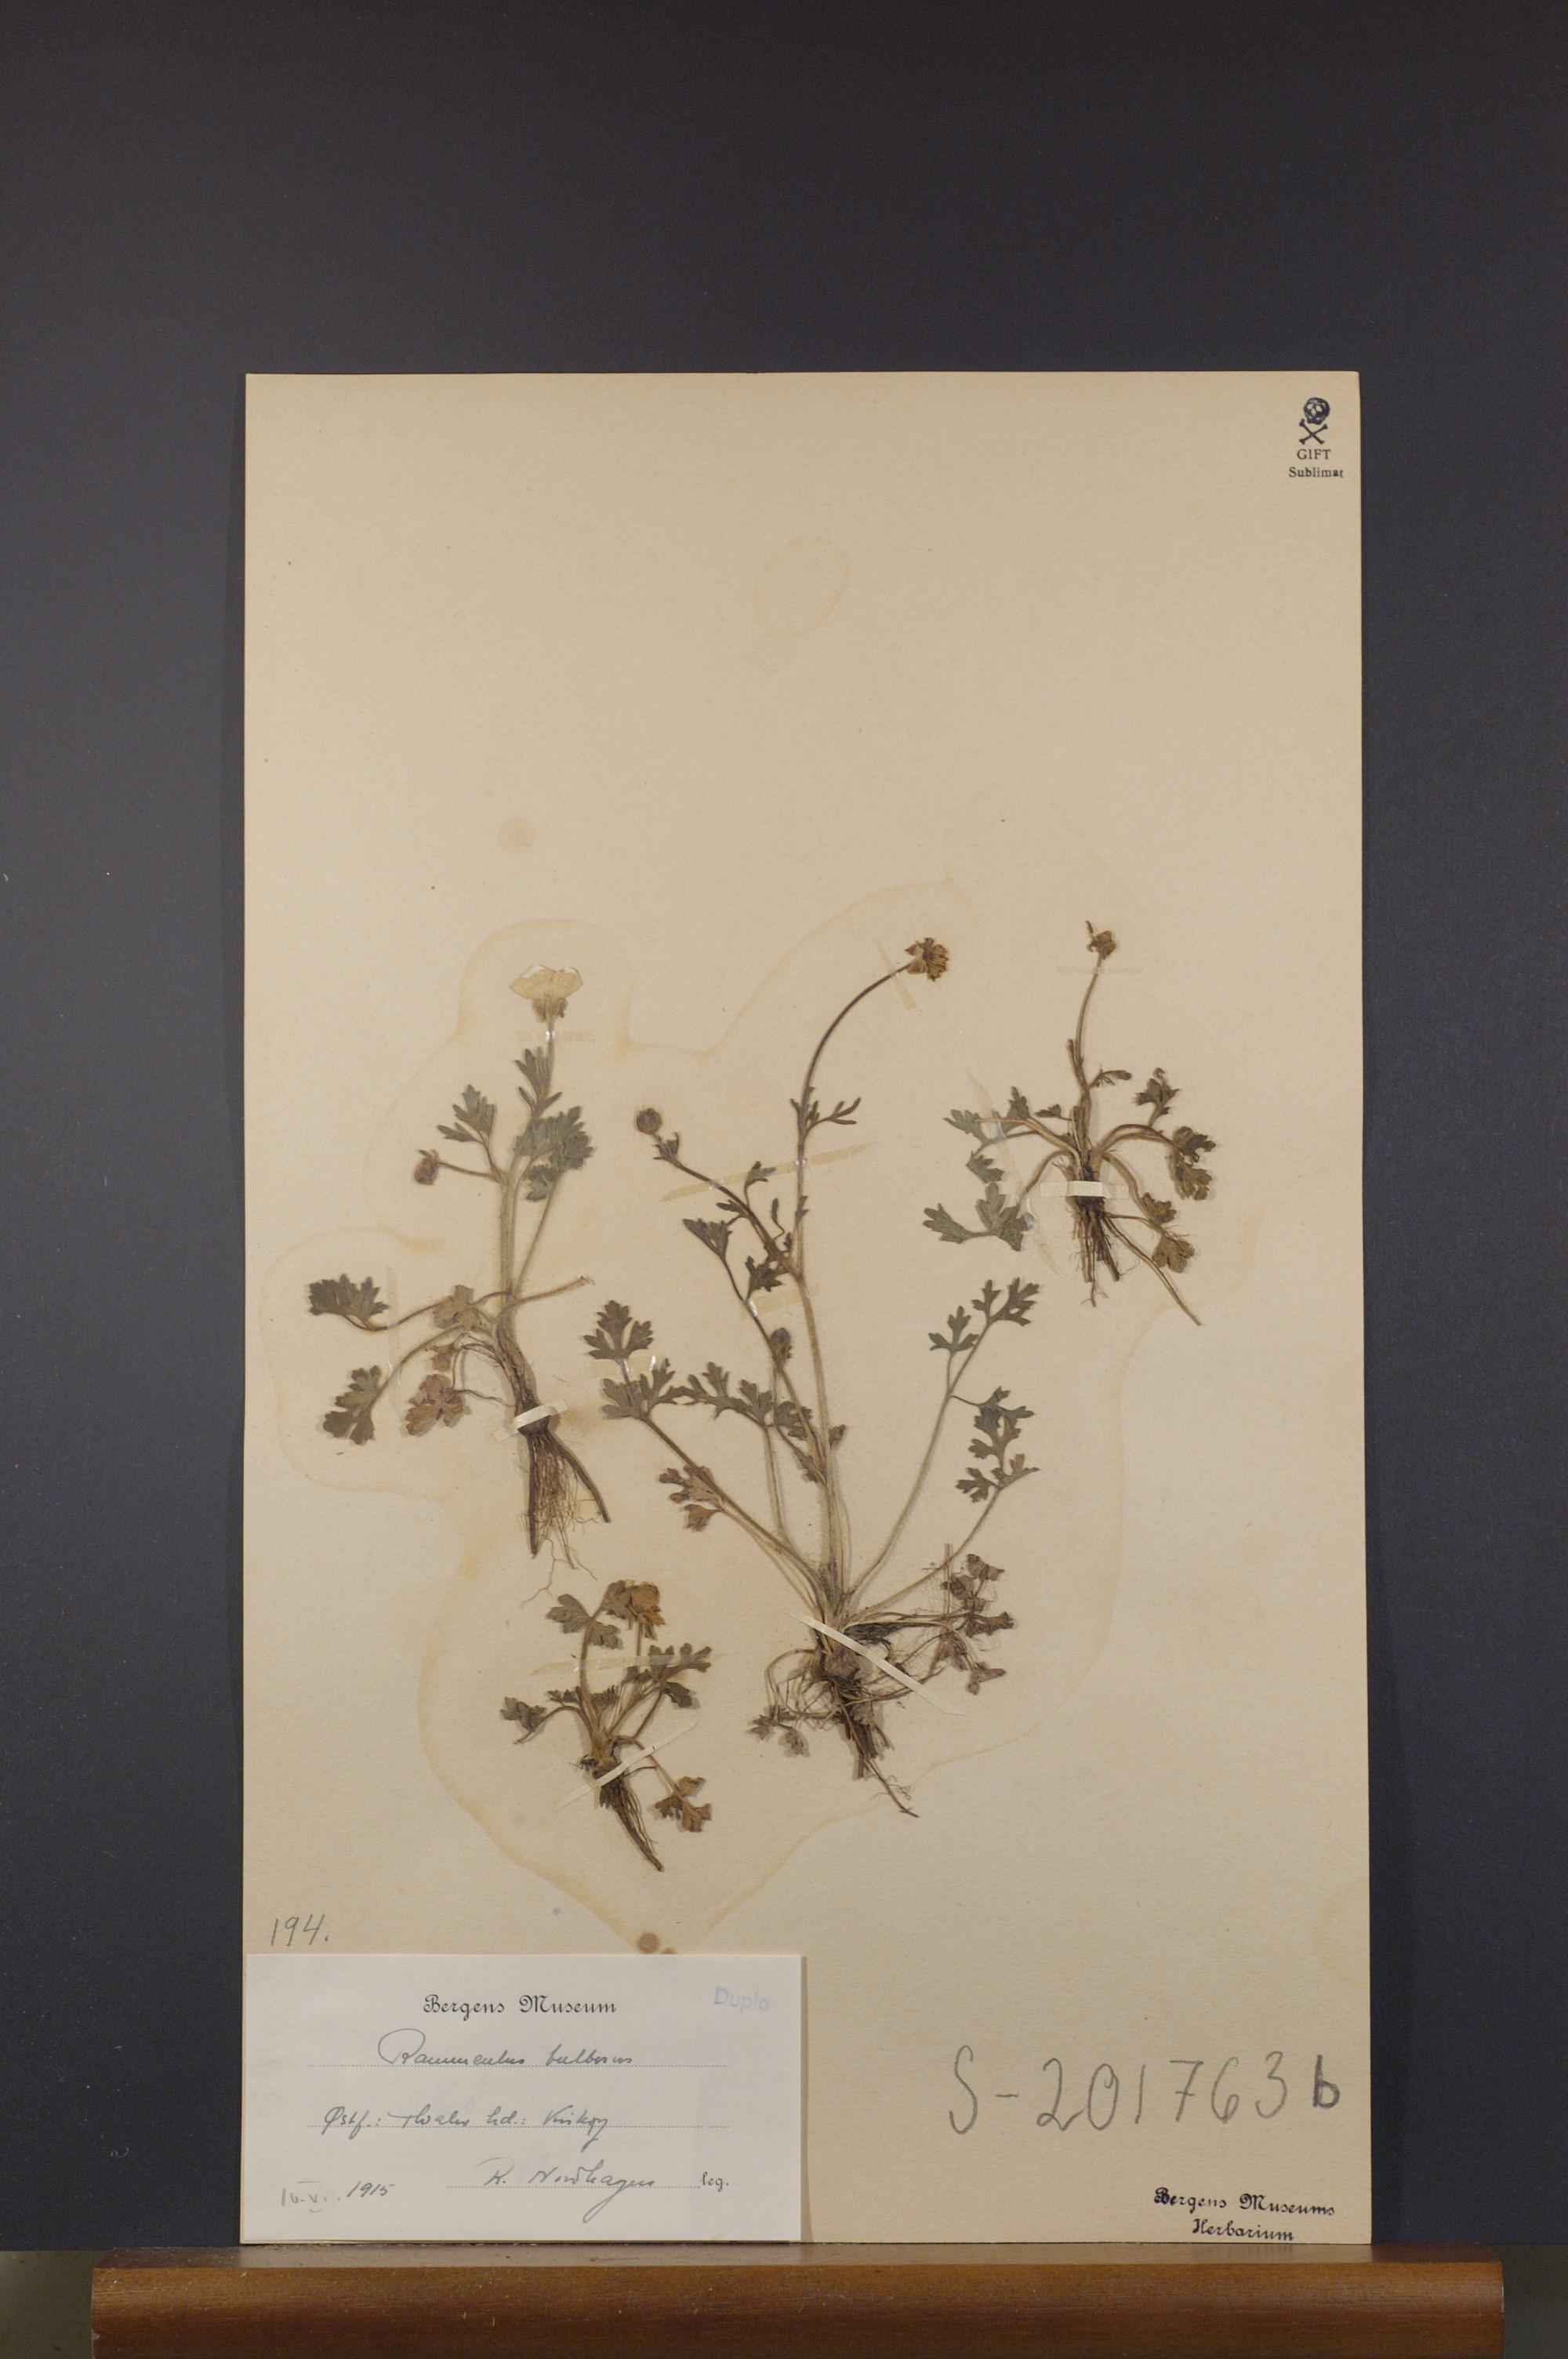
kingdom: Plantae
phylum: Tracheophyta
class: Magnoliopsida
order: Ranunculales
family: Ranunculaceae
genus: Ranunculus
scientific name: Ranunculus bulbosus
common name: Bulbous buttercup
